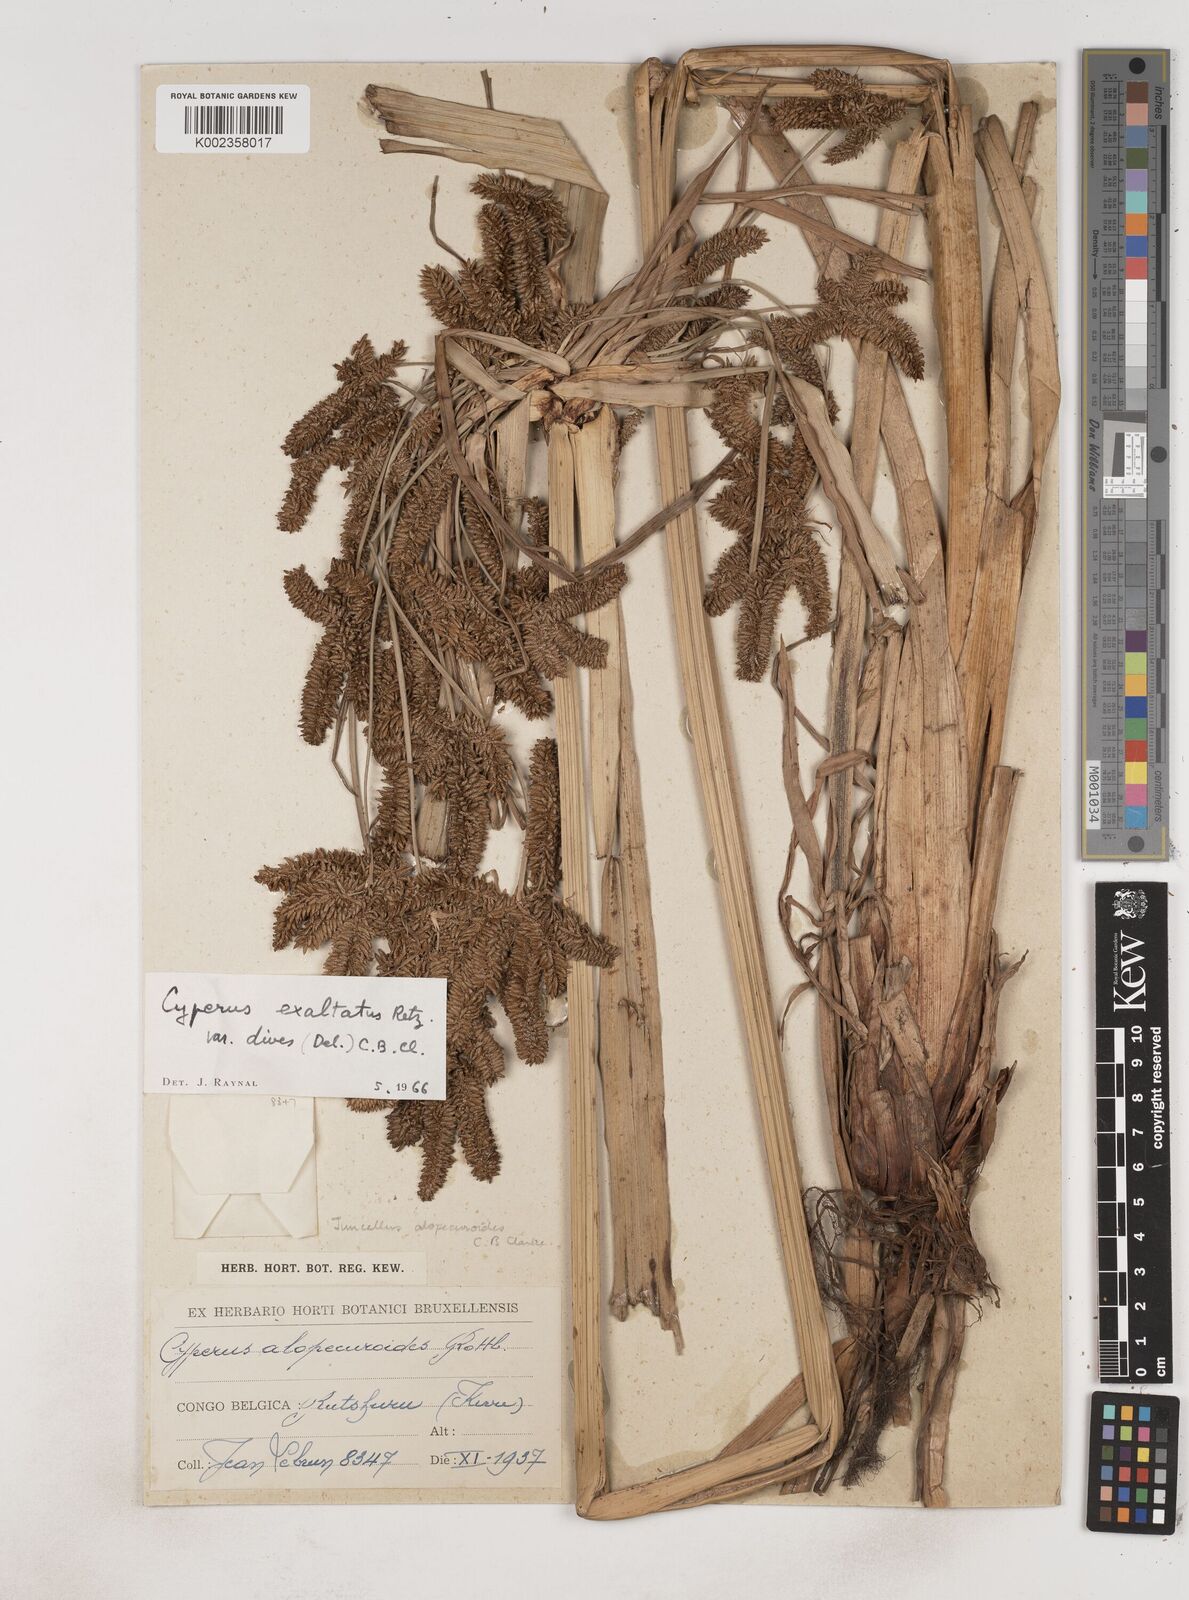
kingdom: Plantae
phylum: Tracheophyta
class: Liliopsida
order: Poales
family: Cyperaceae
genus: Cyperus
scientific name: Cyperus dives
